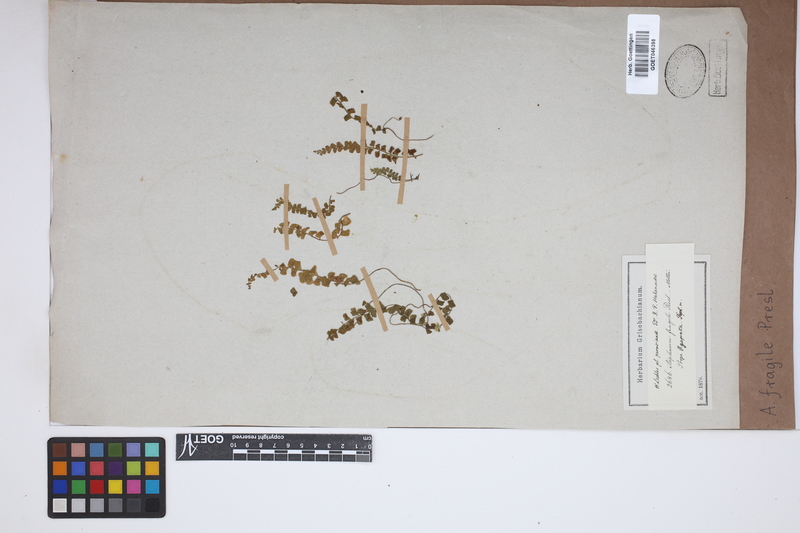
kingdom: Plantae
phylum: Tracheophyta
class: Polypodiopsida
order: Polypodiales
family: Aspleniaceae
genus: Asplenium
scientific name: Asplenium peruvianum
